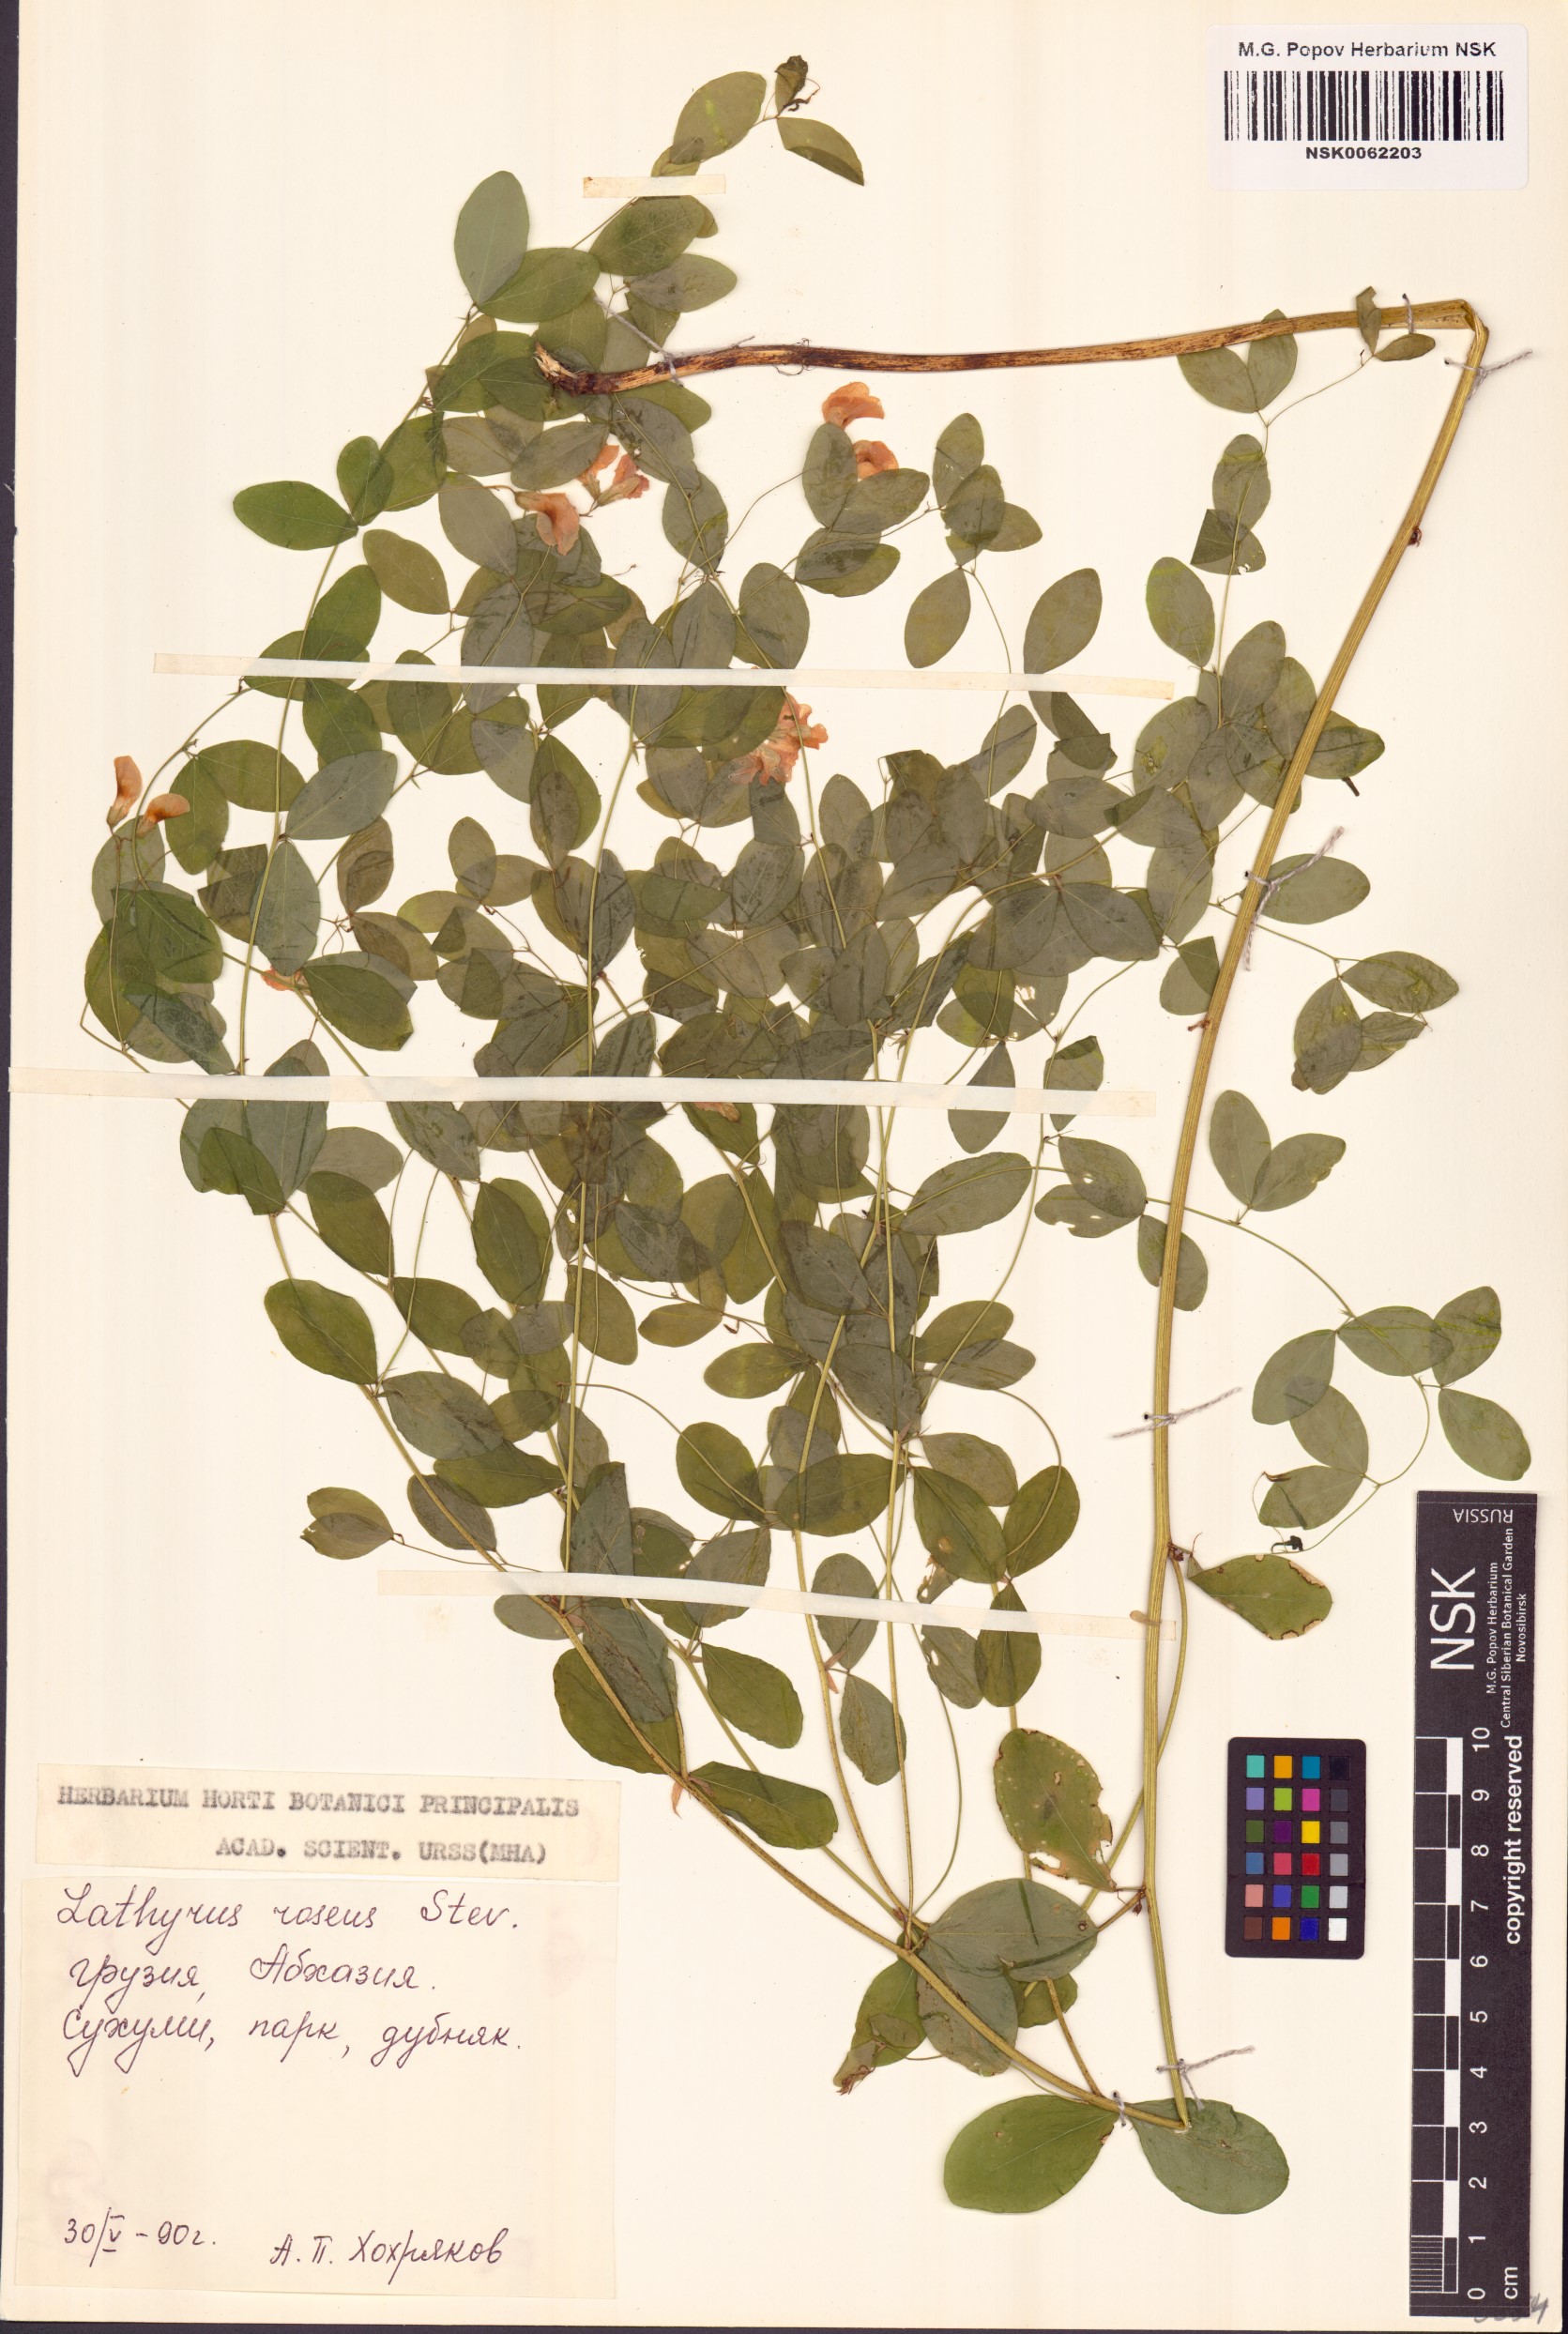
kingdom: Plantae
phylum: Tracheophyta
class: Magnoliopsida
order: Fabales
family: Fabaceae
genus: Lathyrus
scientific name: Lathyrus roseus
